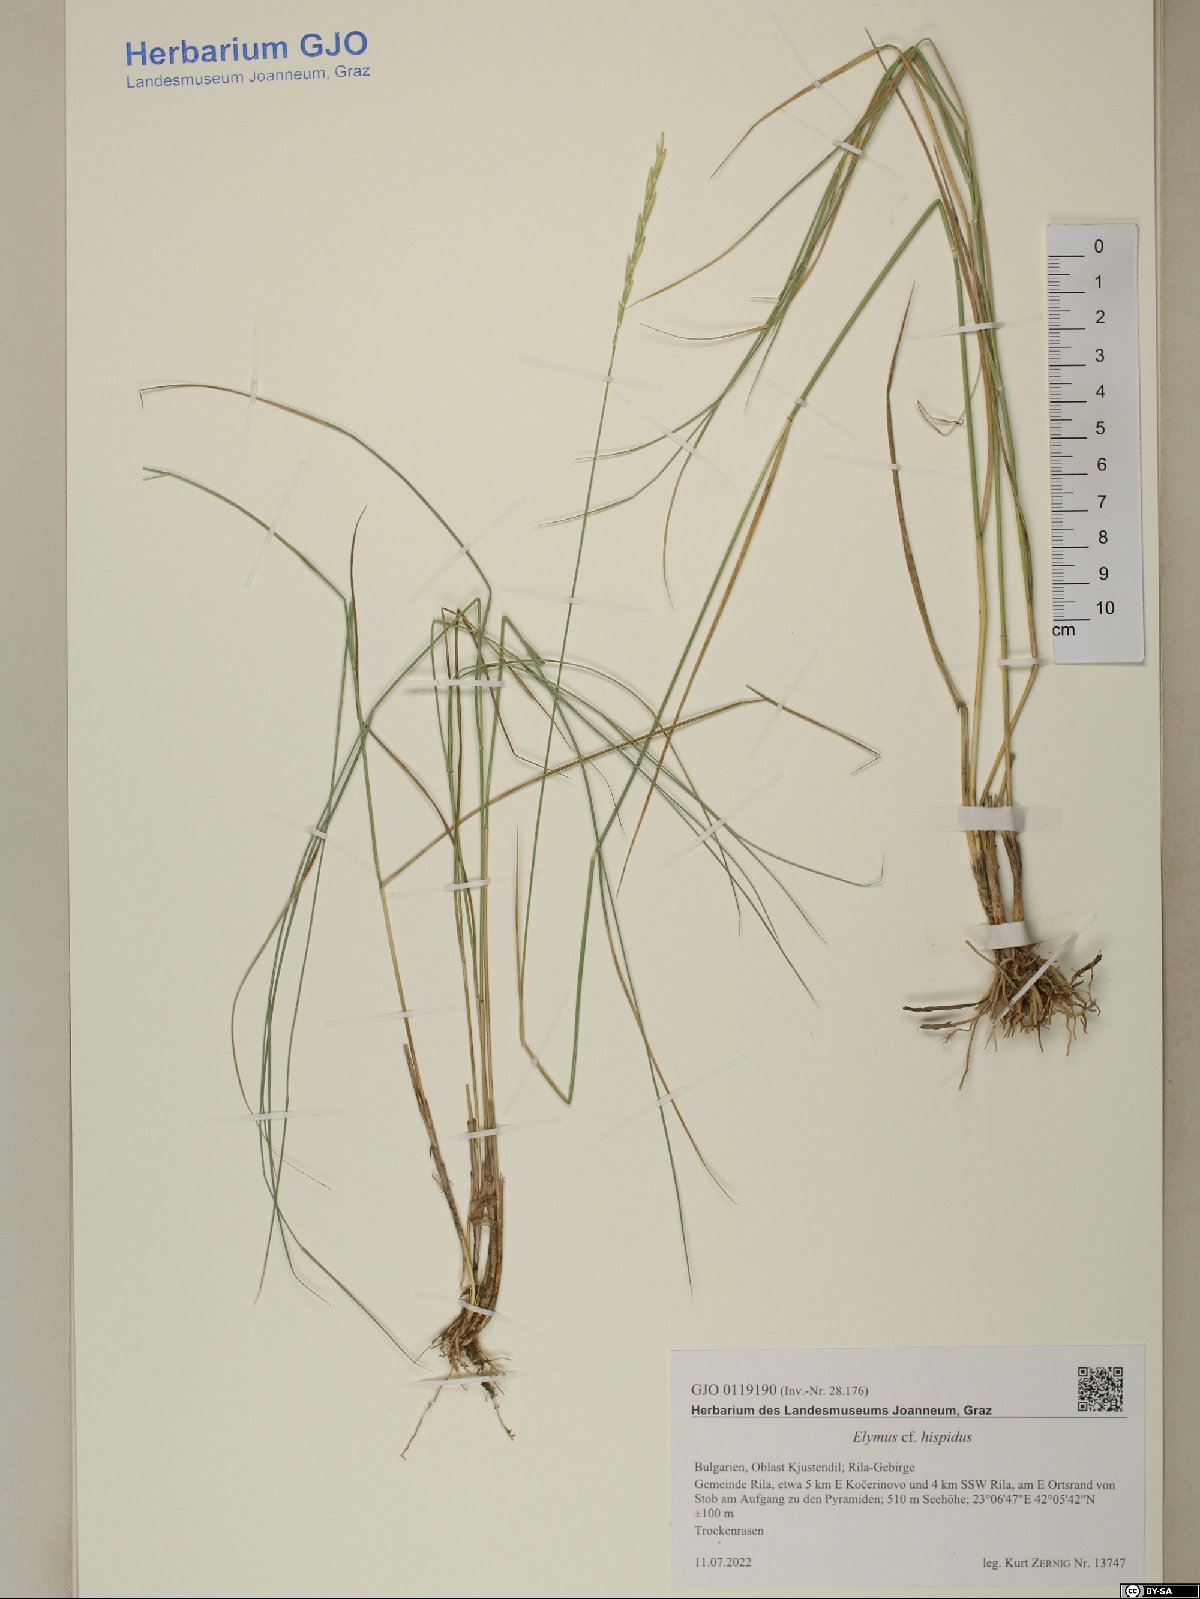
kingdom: Plantae
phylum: Tracheophyta
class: Liliopsida
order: Poales
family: Poaceae
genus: Thinopyrum
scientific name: Thinopyrum intermedium
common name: Intermediate wheatgrass
